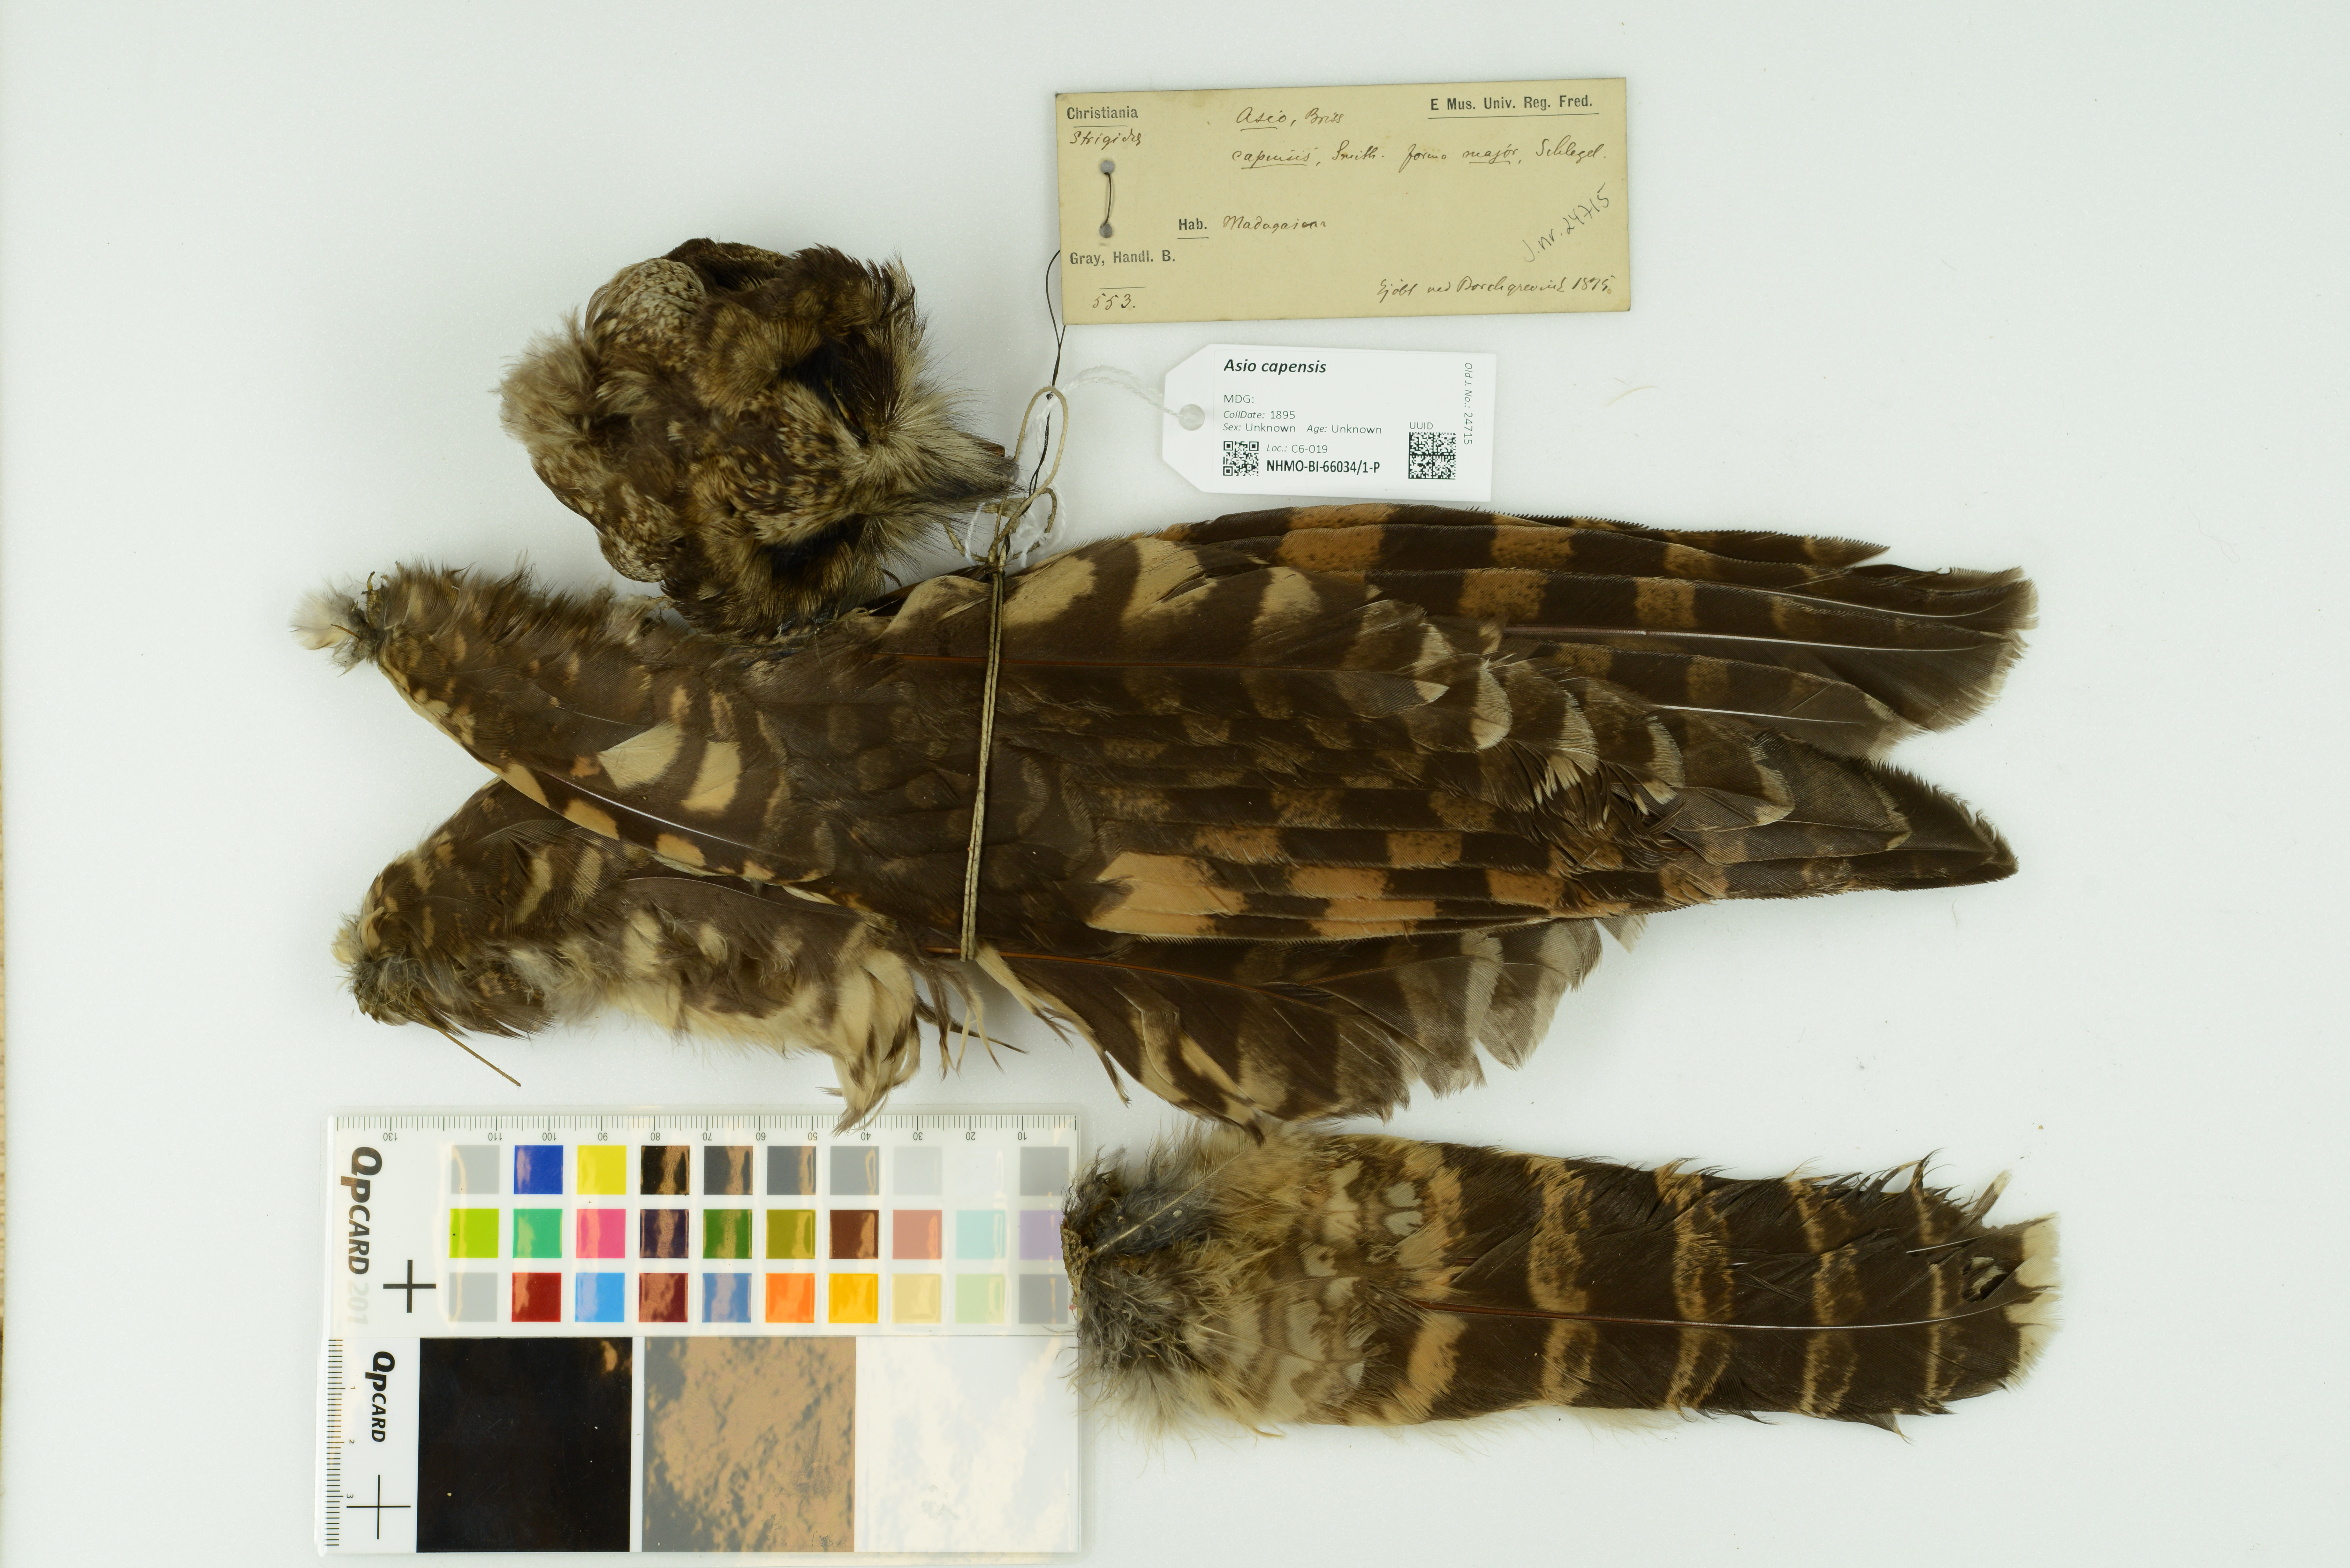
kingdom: Animalia
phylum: Chordata
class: Aves
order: Strigiformes
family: Strigidae
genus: Asio
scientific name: Asio capensis
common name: Marsh owl
